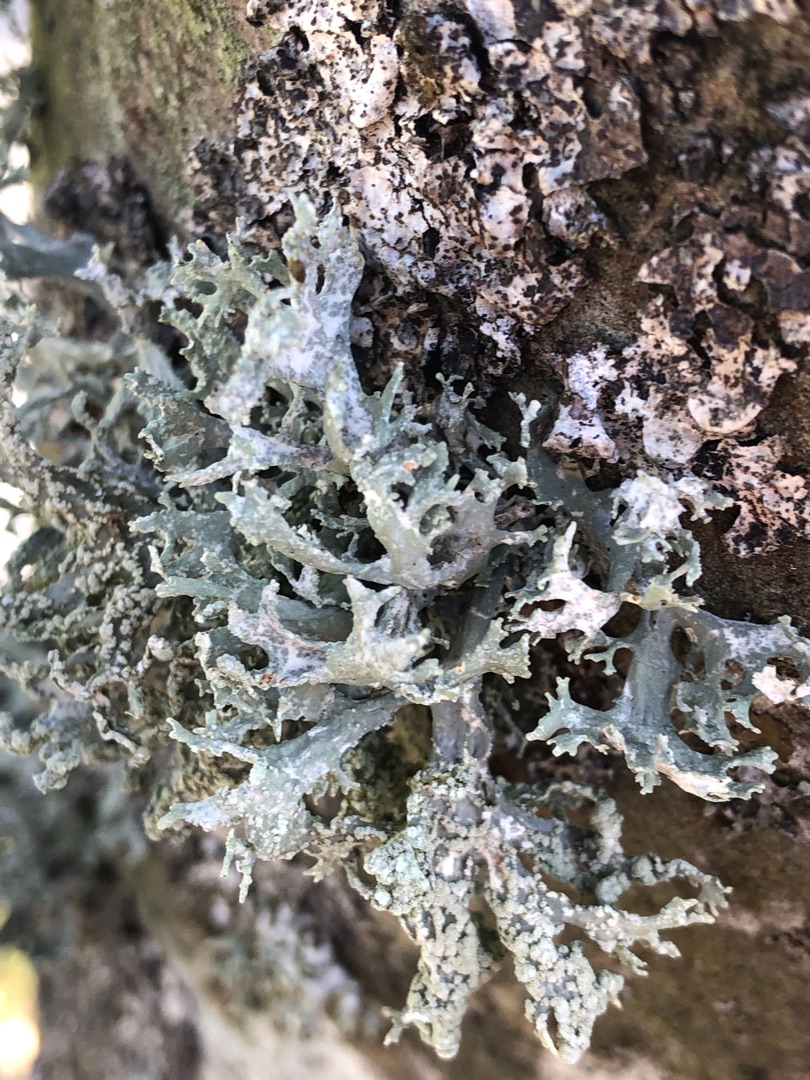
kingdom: Fungi
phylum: Ascomycota
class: Lecanoromycetes
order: Lecanorales
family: Parmeliaceae
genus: Evernia
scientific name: Evernia prunastri
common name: Almindelig slåenlav
